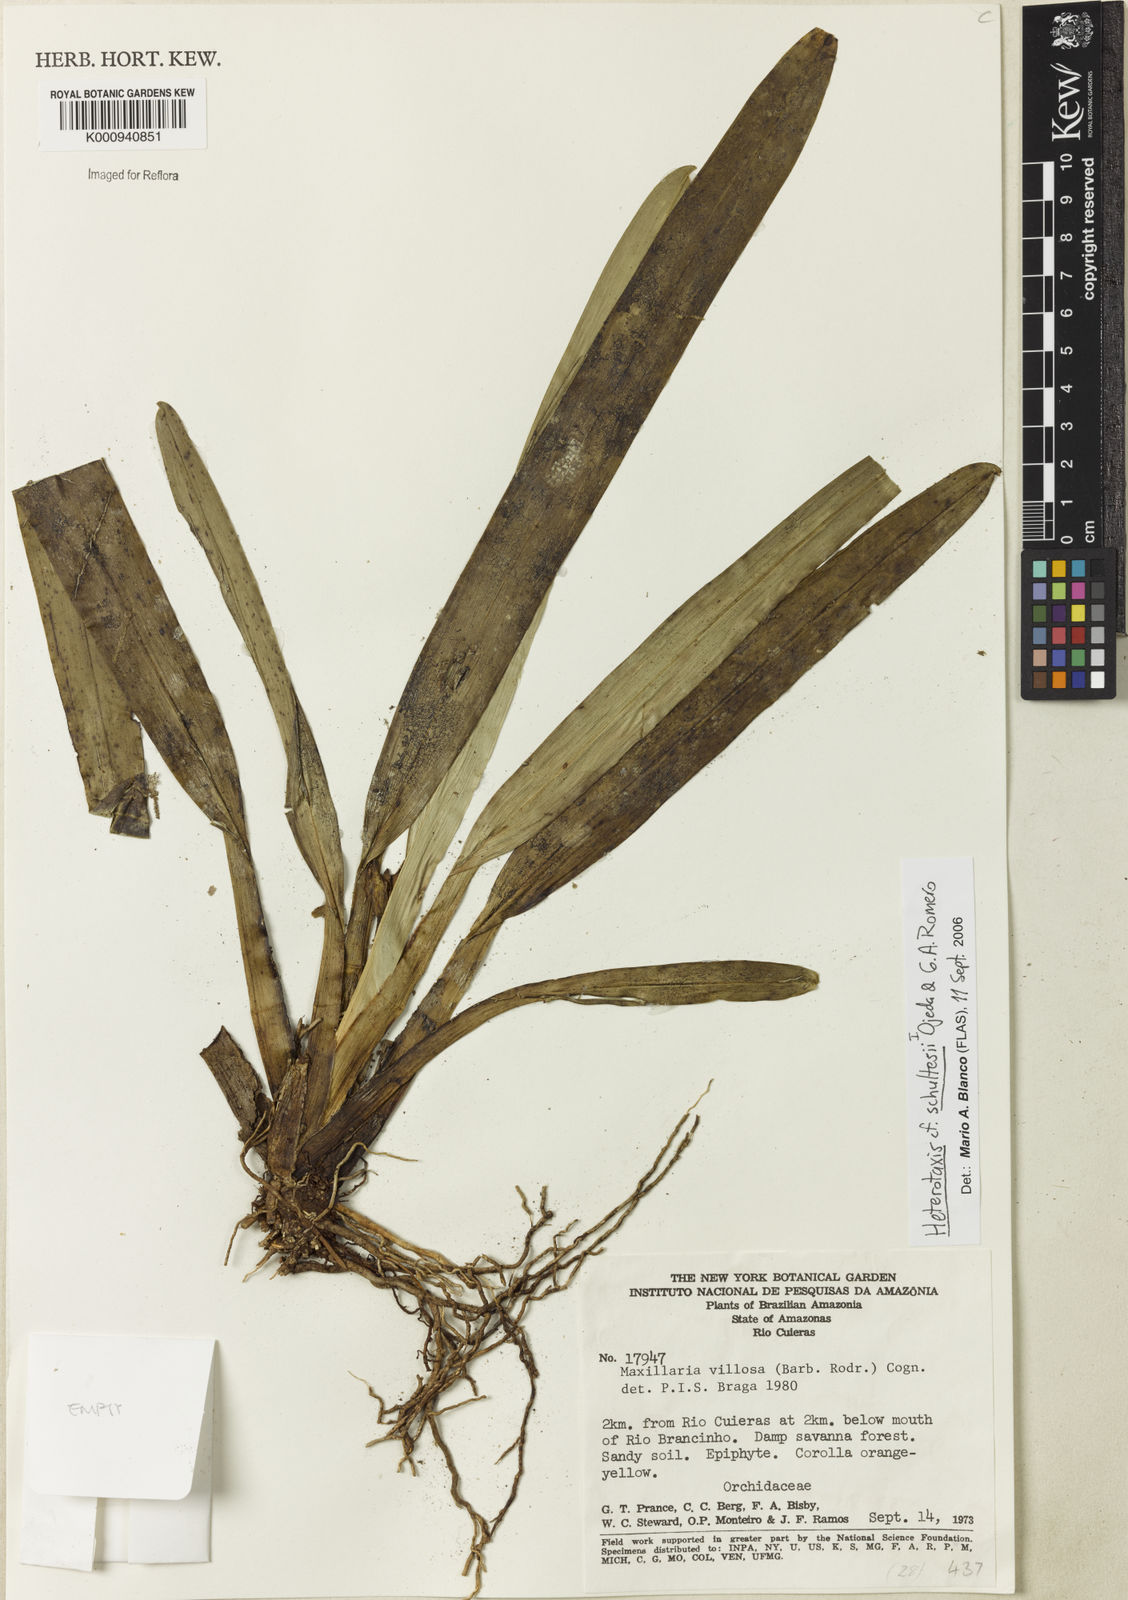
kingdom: Plantae
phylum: Tracheophyta
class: Liliopsida
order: Asparagales
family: Orchidaceae
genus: Maxillaria
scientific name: Maxillaria schultesii
